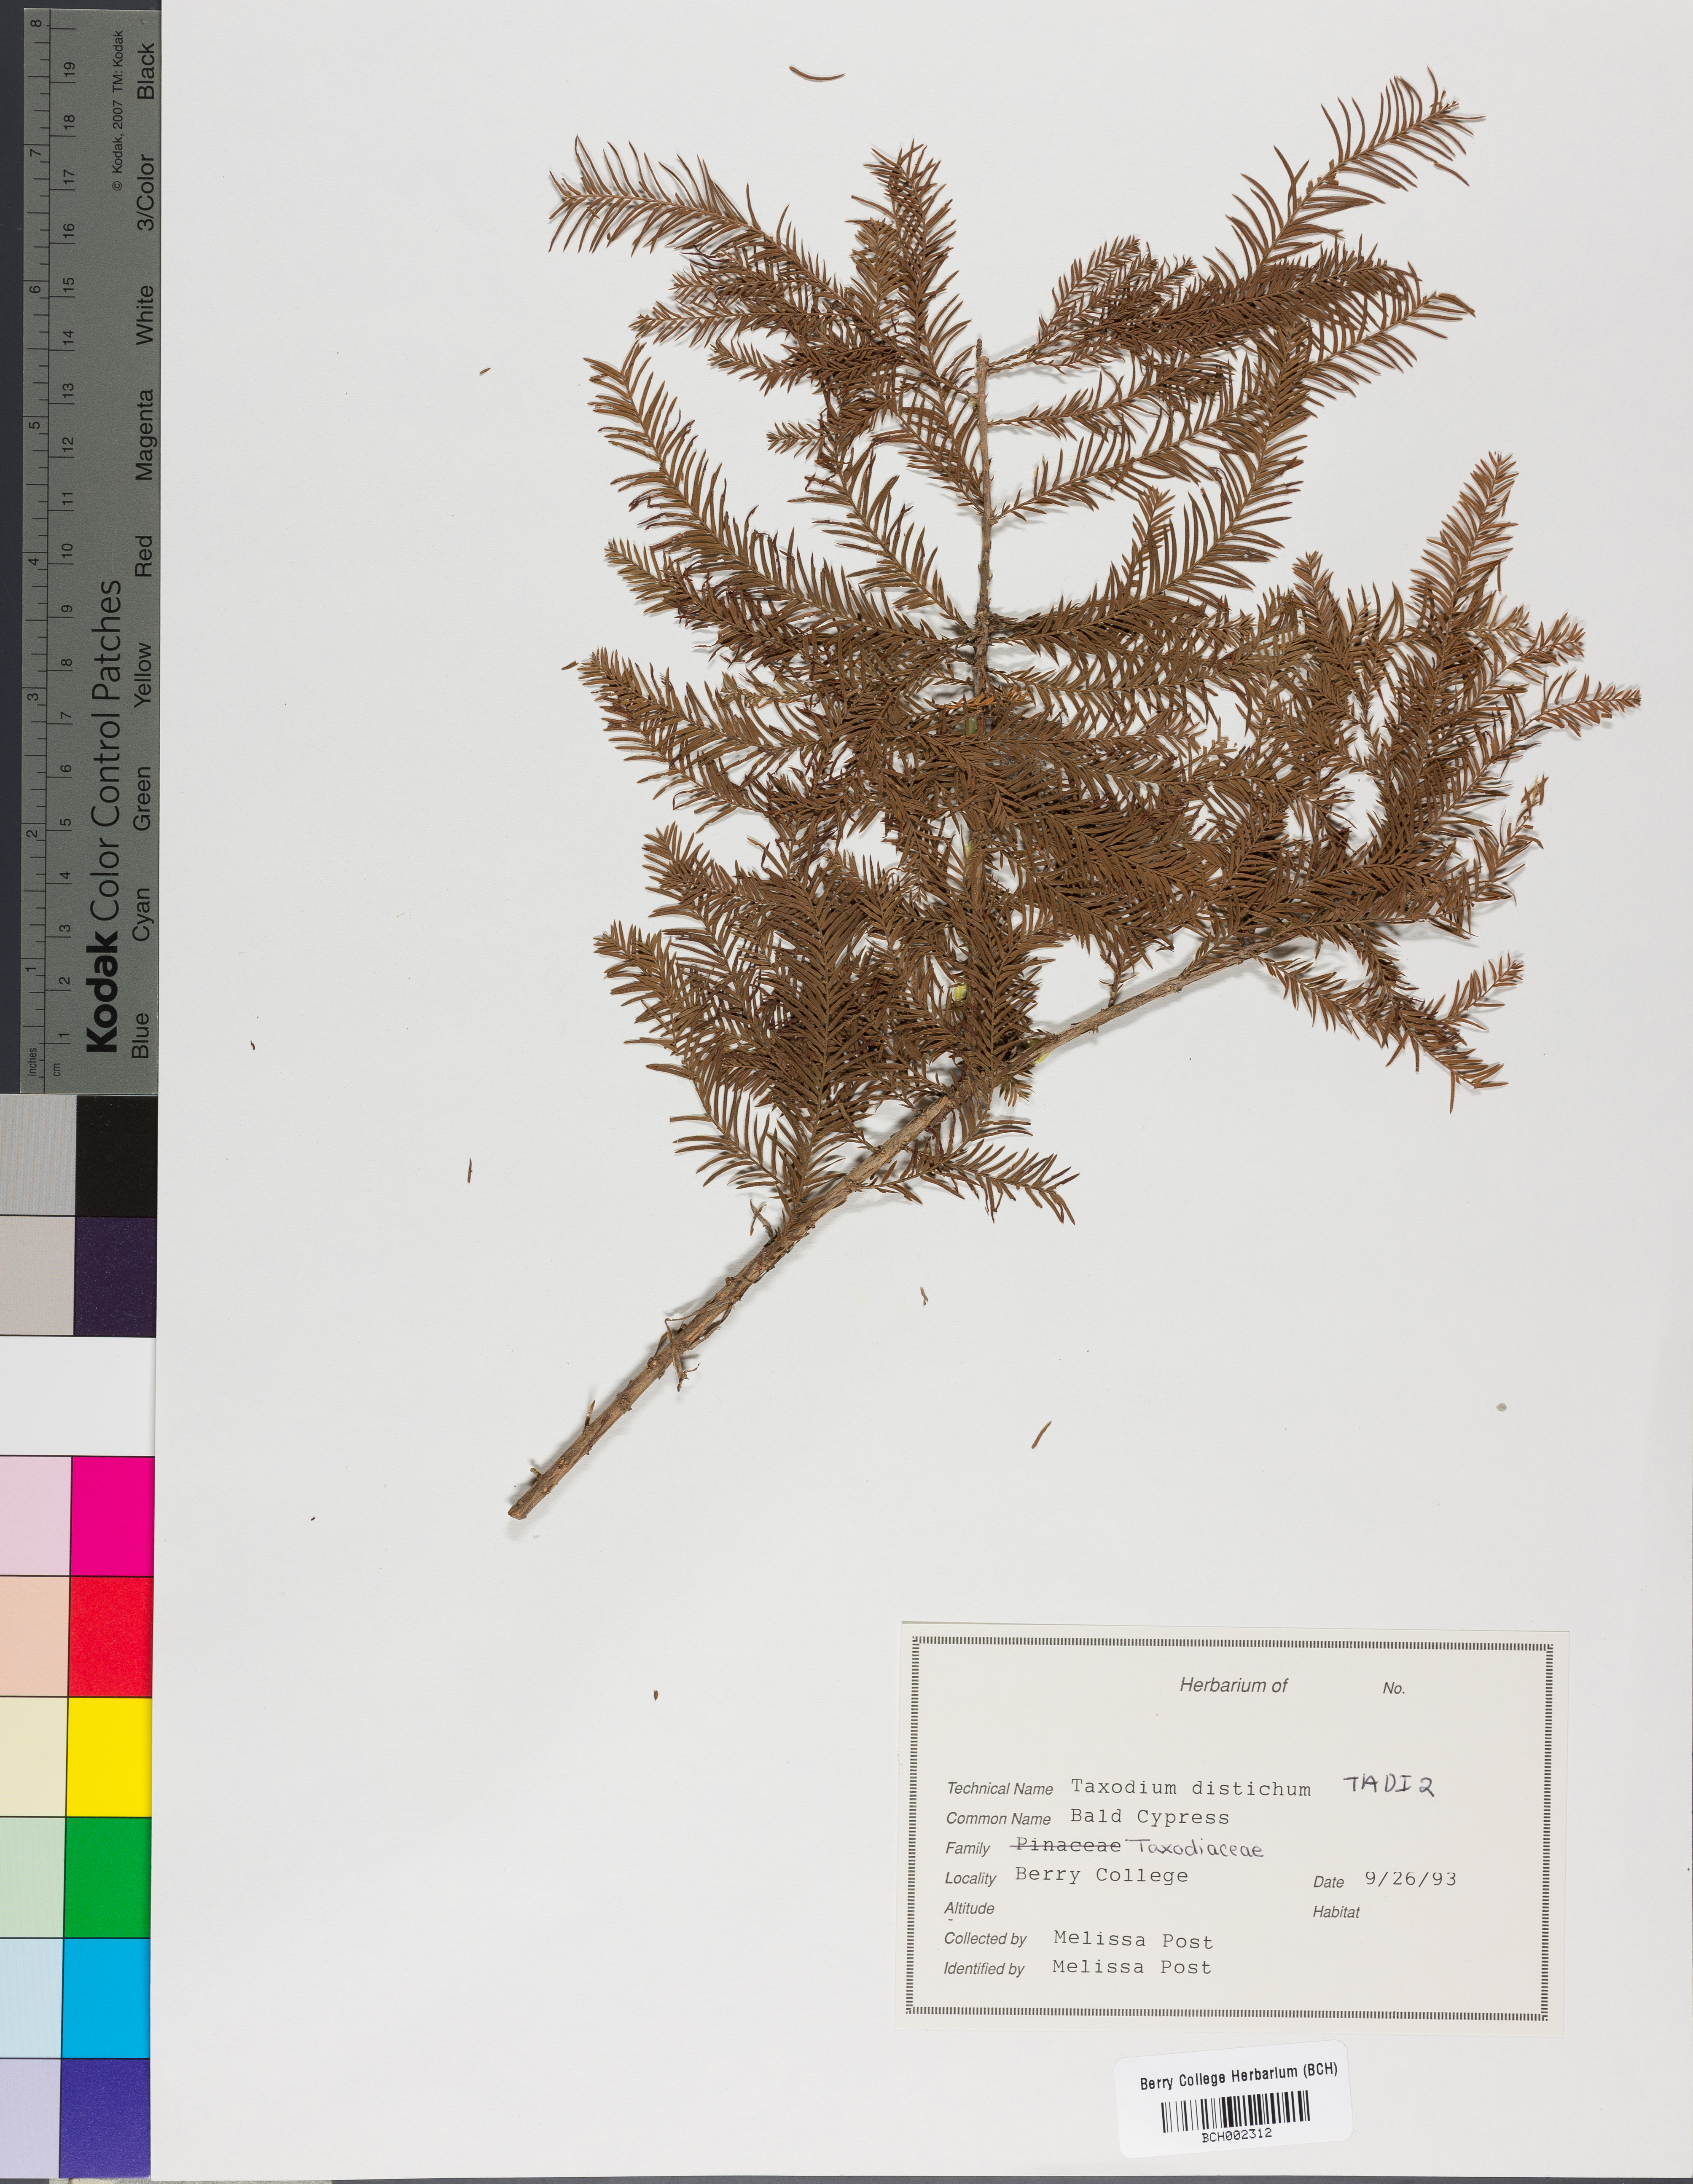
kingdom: Plantae
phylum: Tracheophyta
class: Pinopsida
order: Pinales
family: Cupressaceae
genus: Taxodium
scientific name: Taxodium distichum
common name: Bald cypress
